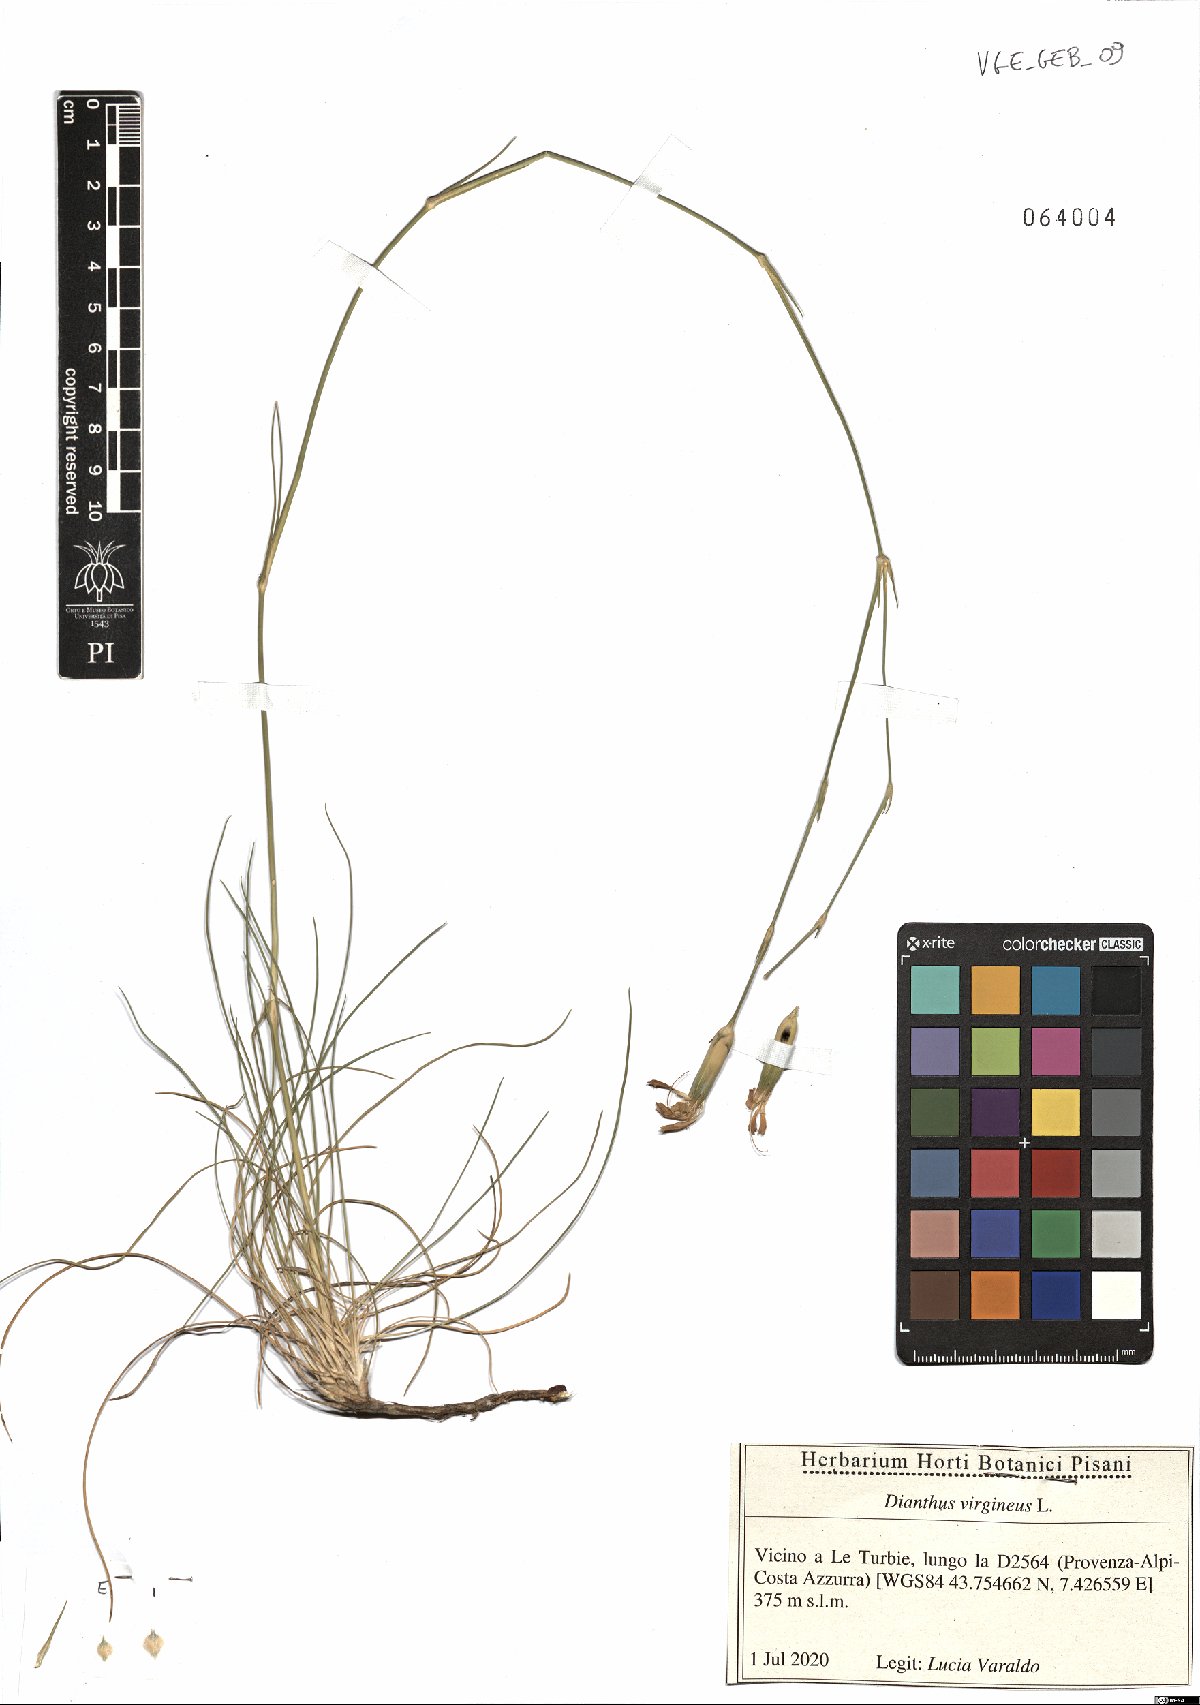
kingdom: Plantae
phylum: Tracheophyta
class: Magnoliopsida
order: Caryophyllales
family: Caryophyllaceae
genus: Dianthus
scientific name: Dianthus virgineus
